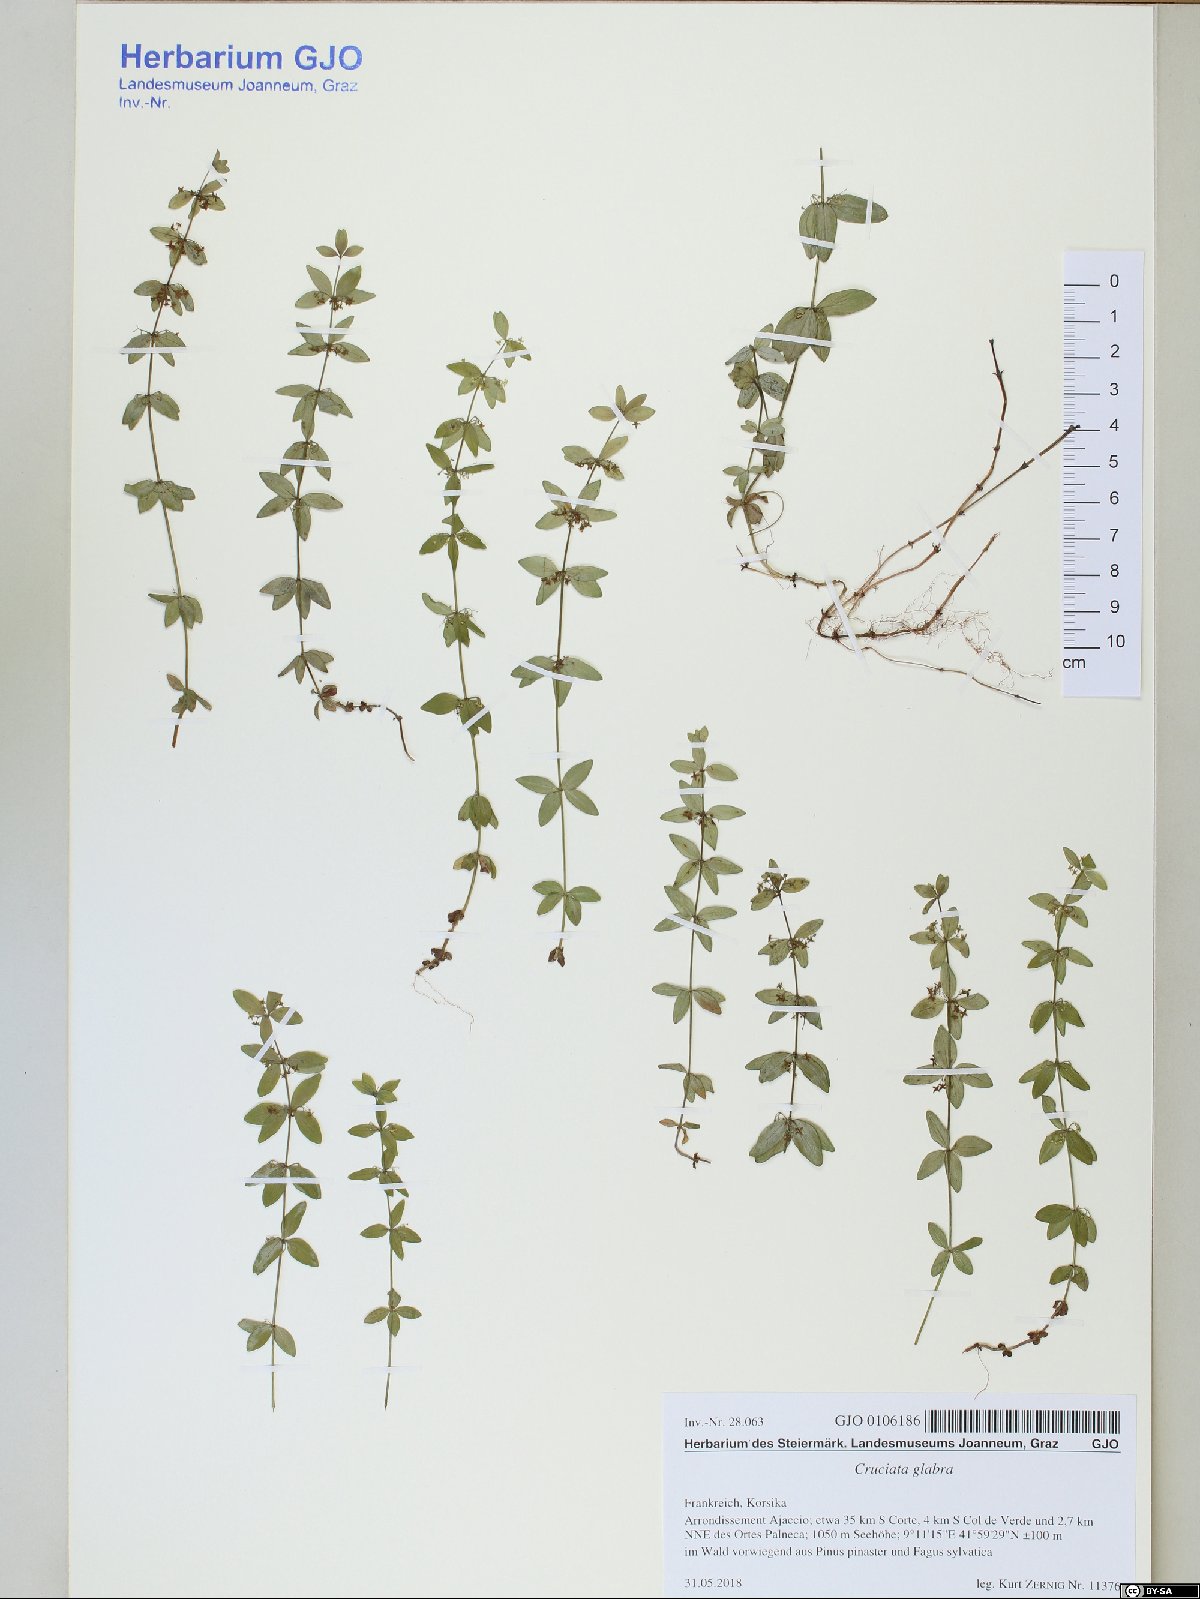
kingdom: Plantae
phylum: Tracheophyta
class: Magnoliopsida
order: Gentianales
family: Rubiaceae
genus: Cruciata
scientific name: Cruciata glabra
